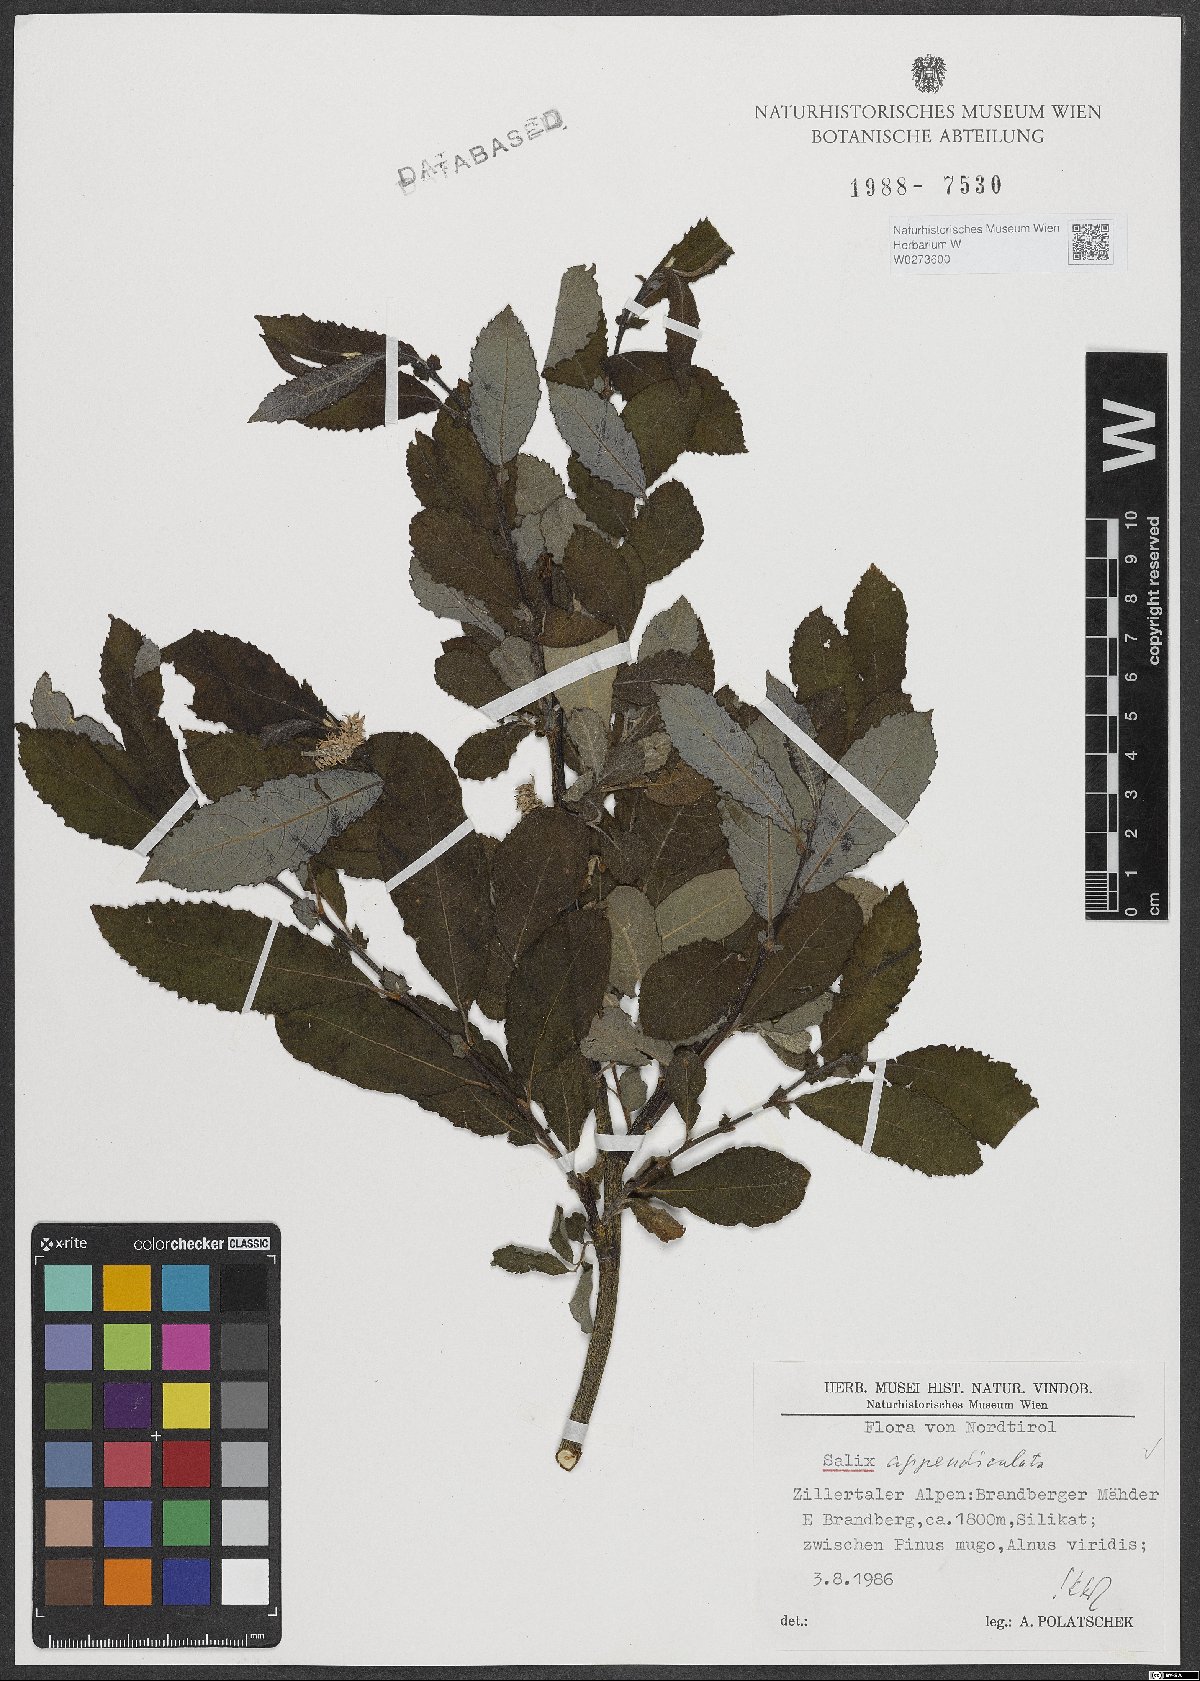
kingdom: Plantae
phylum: Tracheophyta
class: Magnoliopsida
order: Malpighiales
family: Salicaceae
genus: Salix
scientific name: Salix appendiculata
